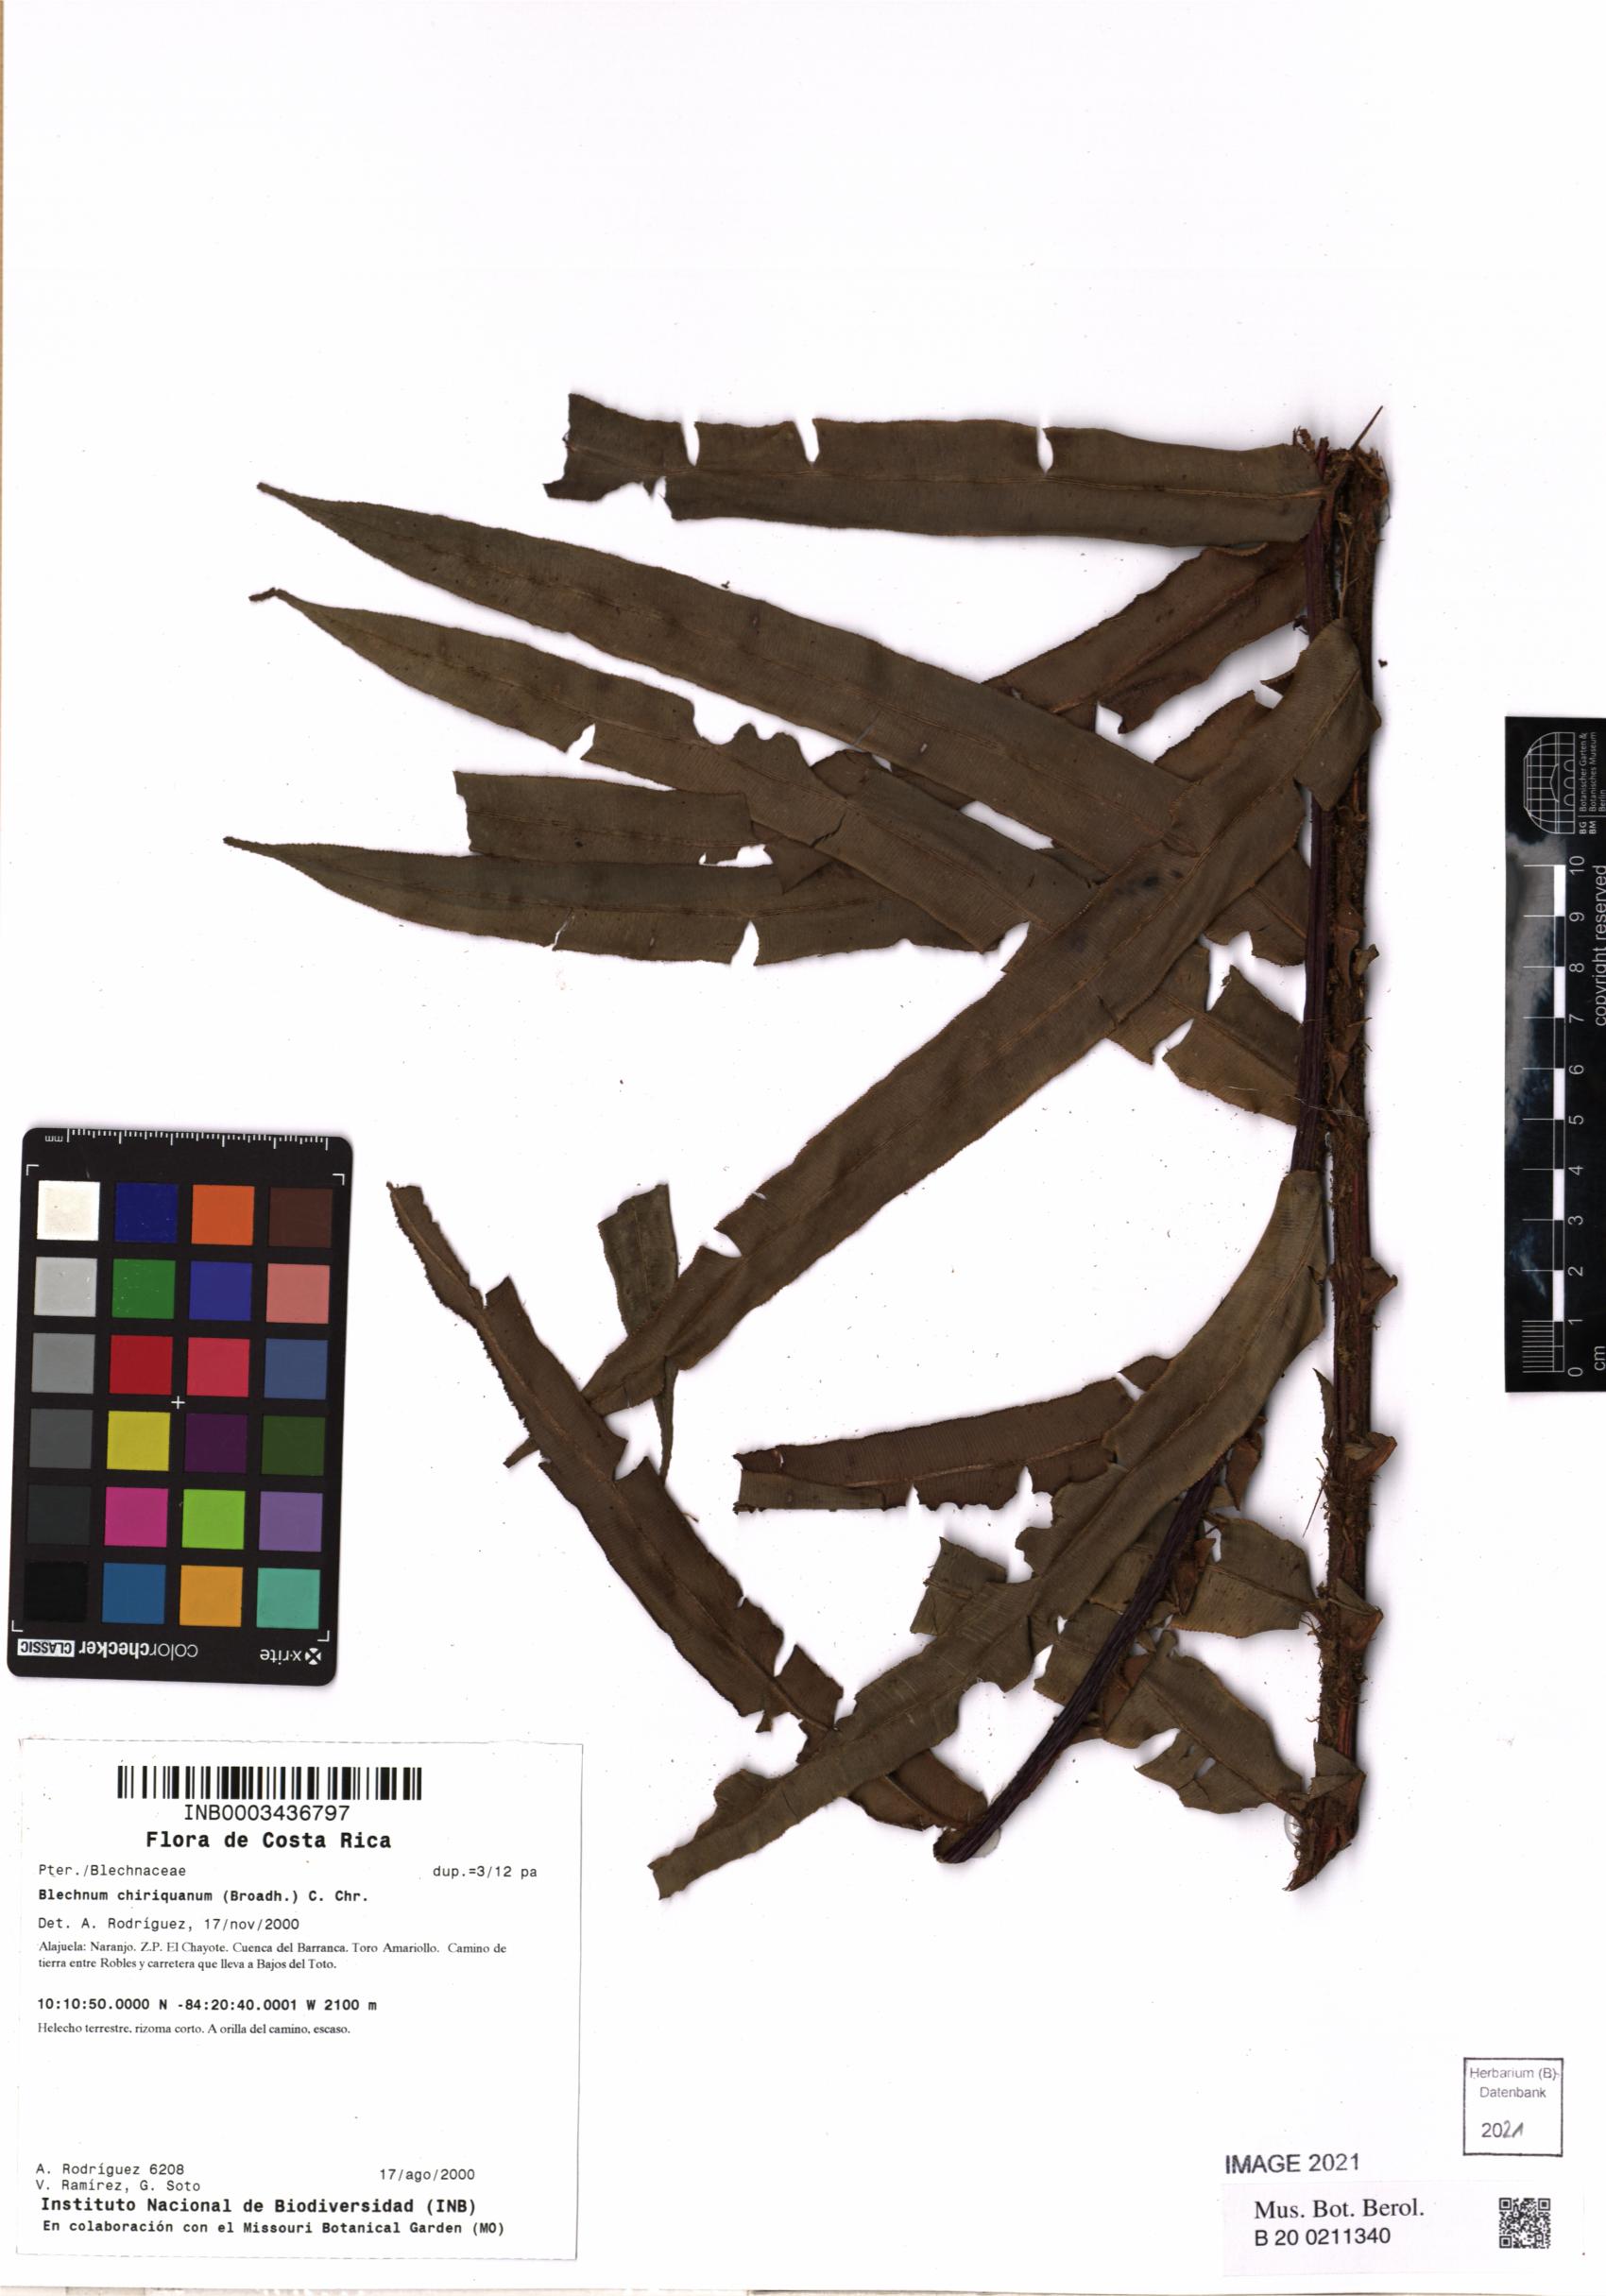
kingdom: Plantae
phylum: Tracheophyta
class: Polypodiopsida
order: Polypodiales
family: Blechnaceae
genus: Parablechnum
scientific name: Parablechnum chiriquanum
